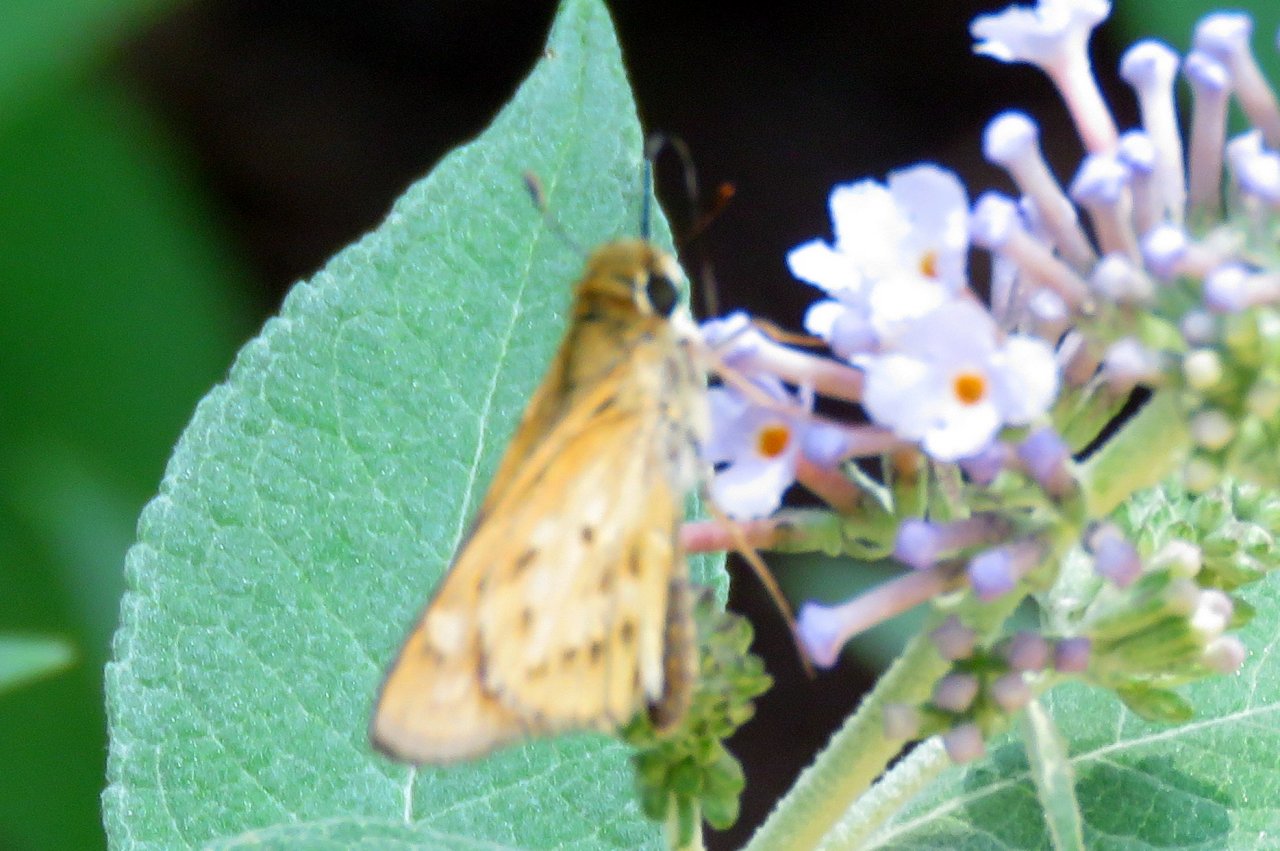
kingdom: Animalia
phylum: Arthropoda
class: Insecta
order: Lepidoptera
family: Hesperiidae
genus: Hylephila
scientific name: Hylephila phyleus
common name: Fiery Skipper
